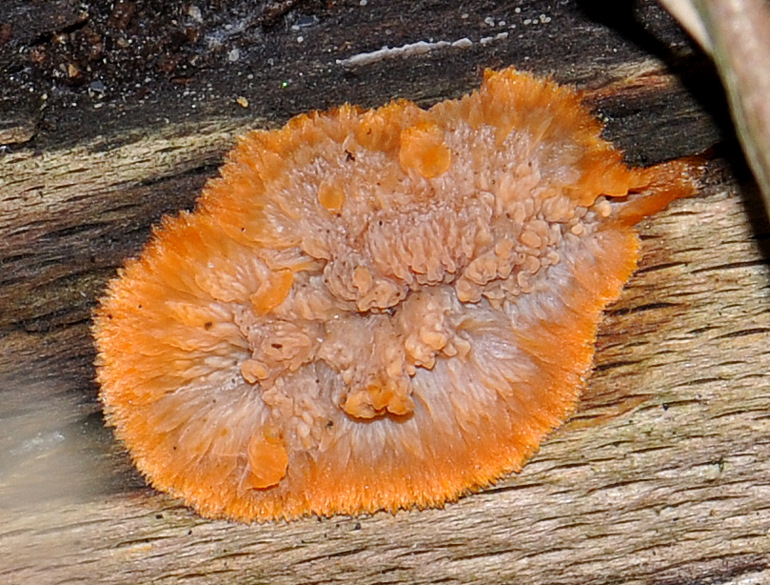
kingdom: Fungi
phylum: Basidiomycota
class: Agaricomycetes
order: Polyporales
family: Meruliaceae
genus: Phlebia
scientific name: Phlebia radiata
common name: stråle-åresvamp
